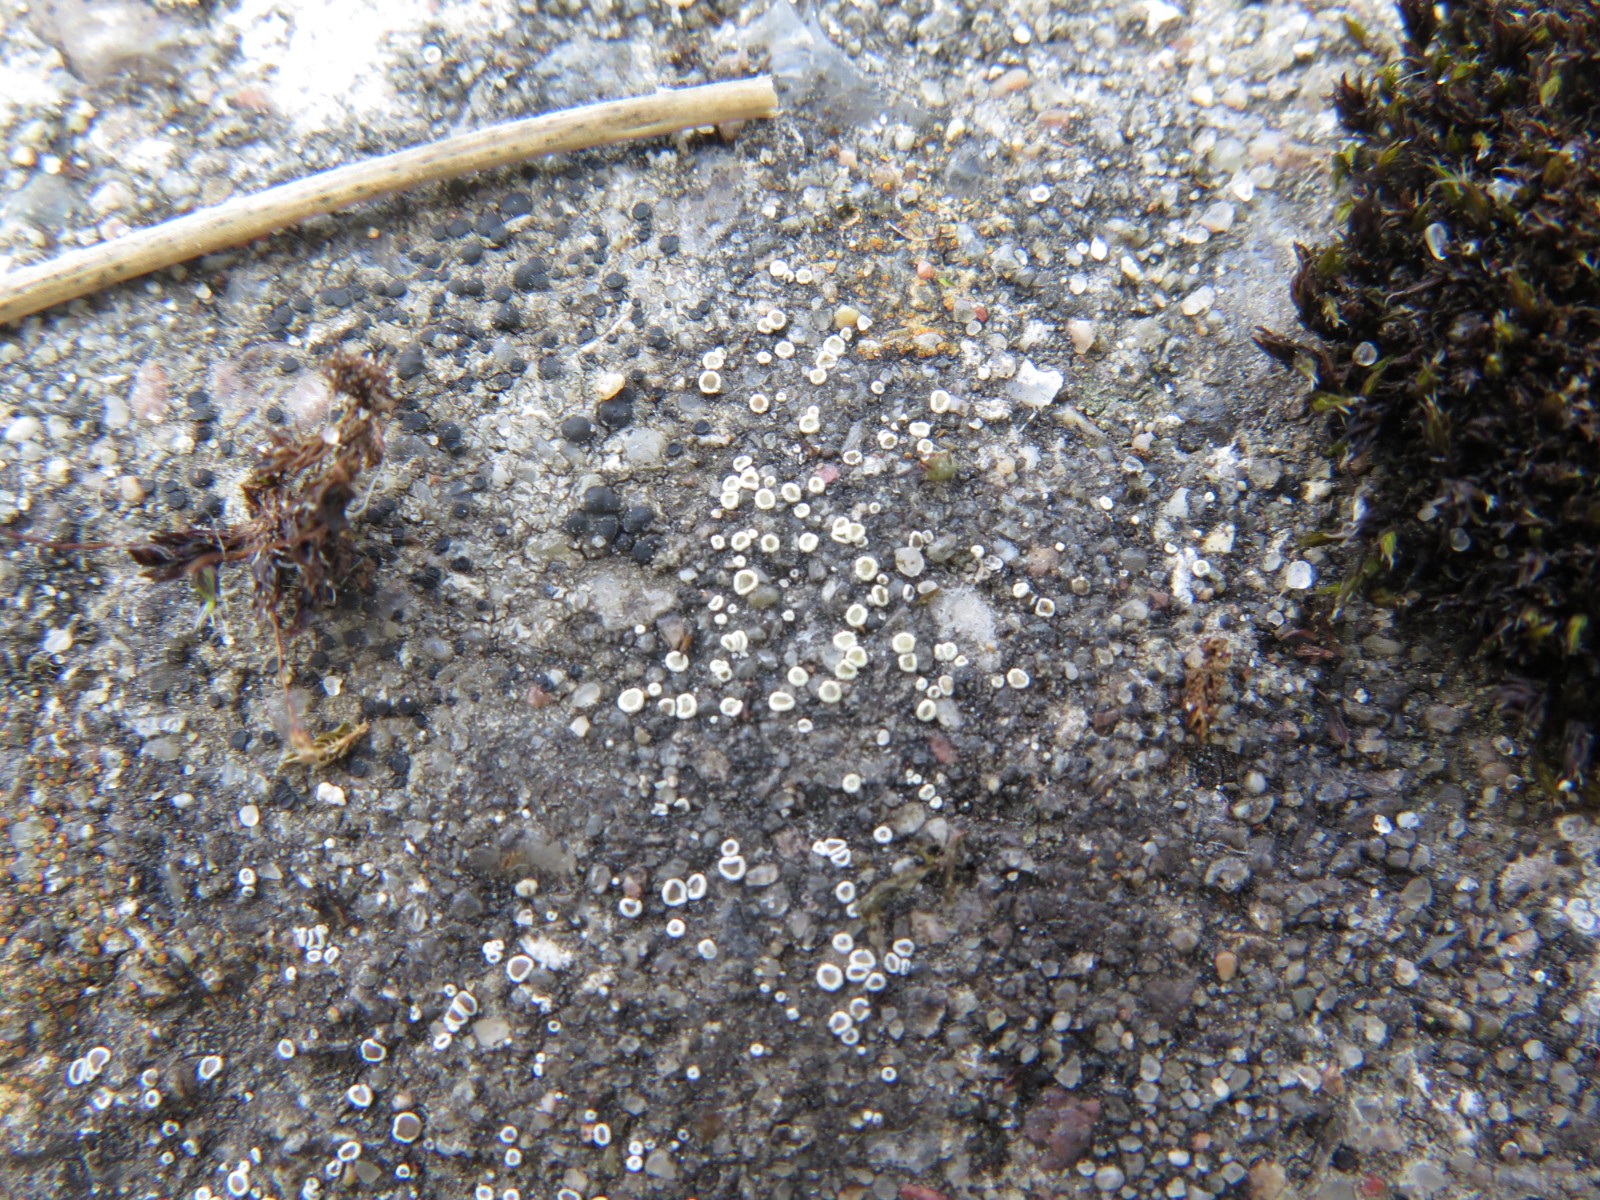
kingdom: Fungi
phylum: Ascomycota
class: Lecanoromycetes
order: Lecanorales
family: Lecanoraceae
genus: Polyozosia
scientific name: Polyozosia dispersa
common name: spredt kantskivelav
